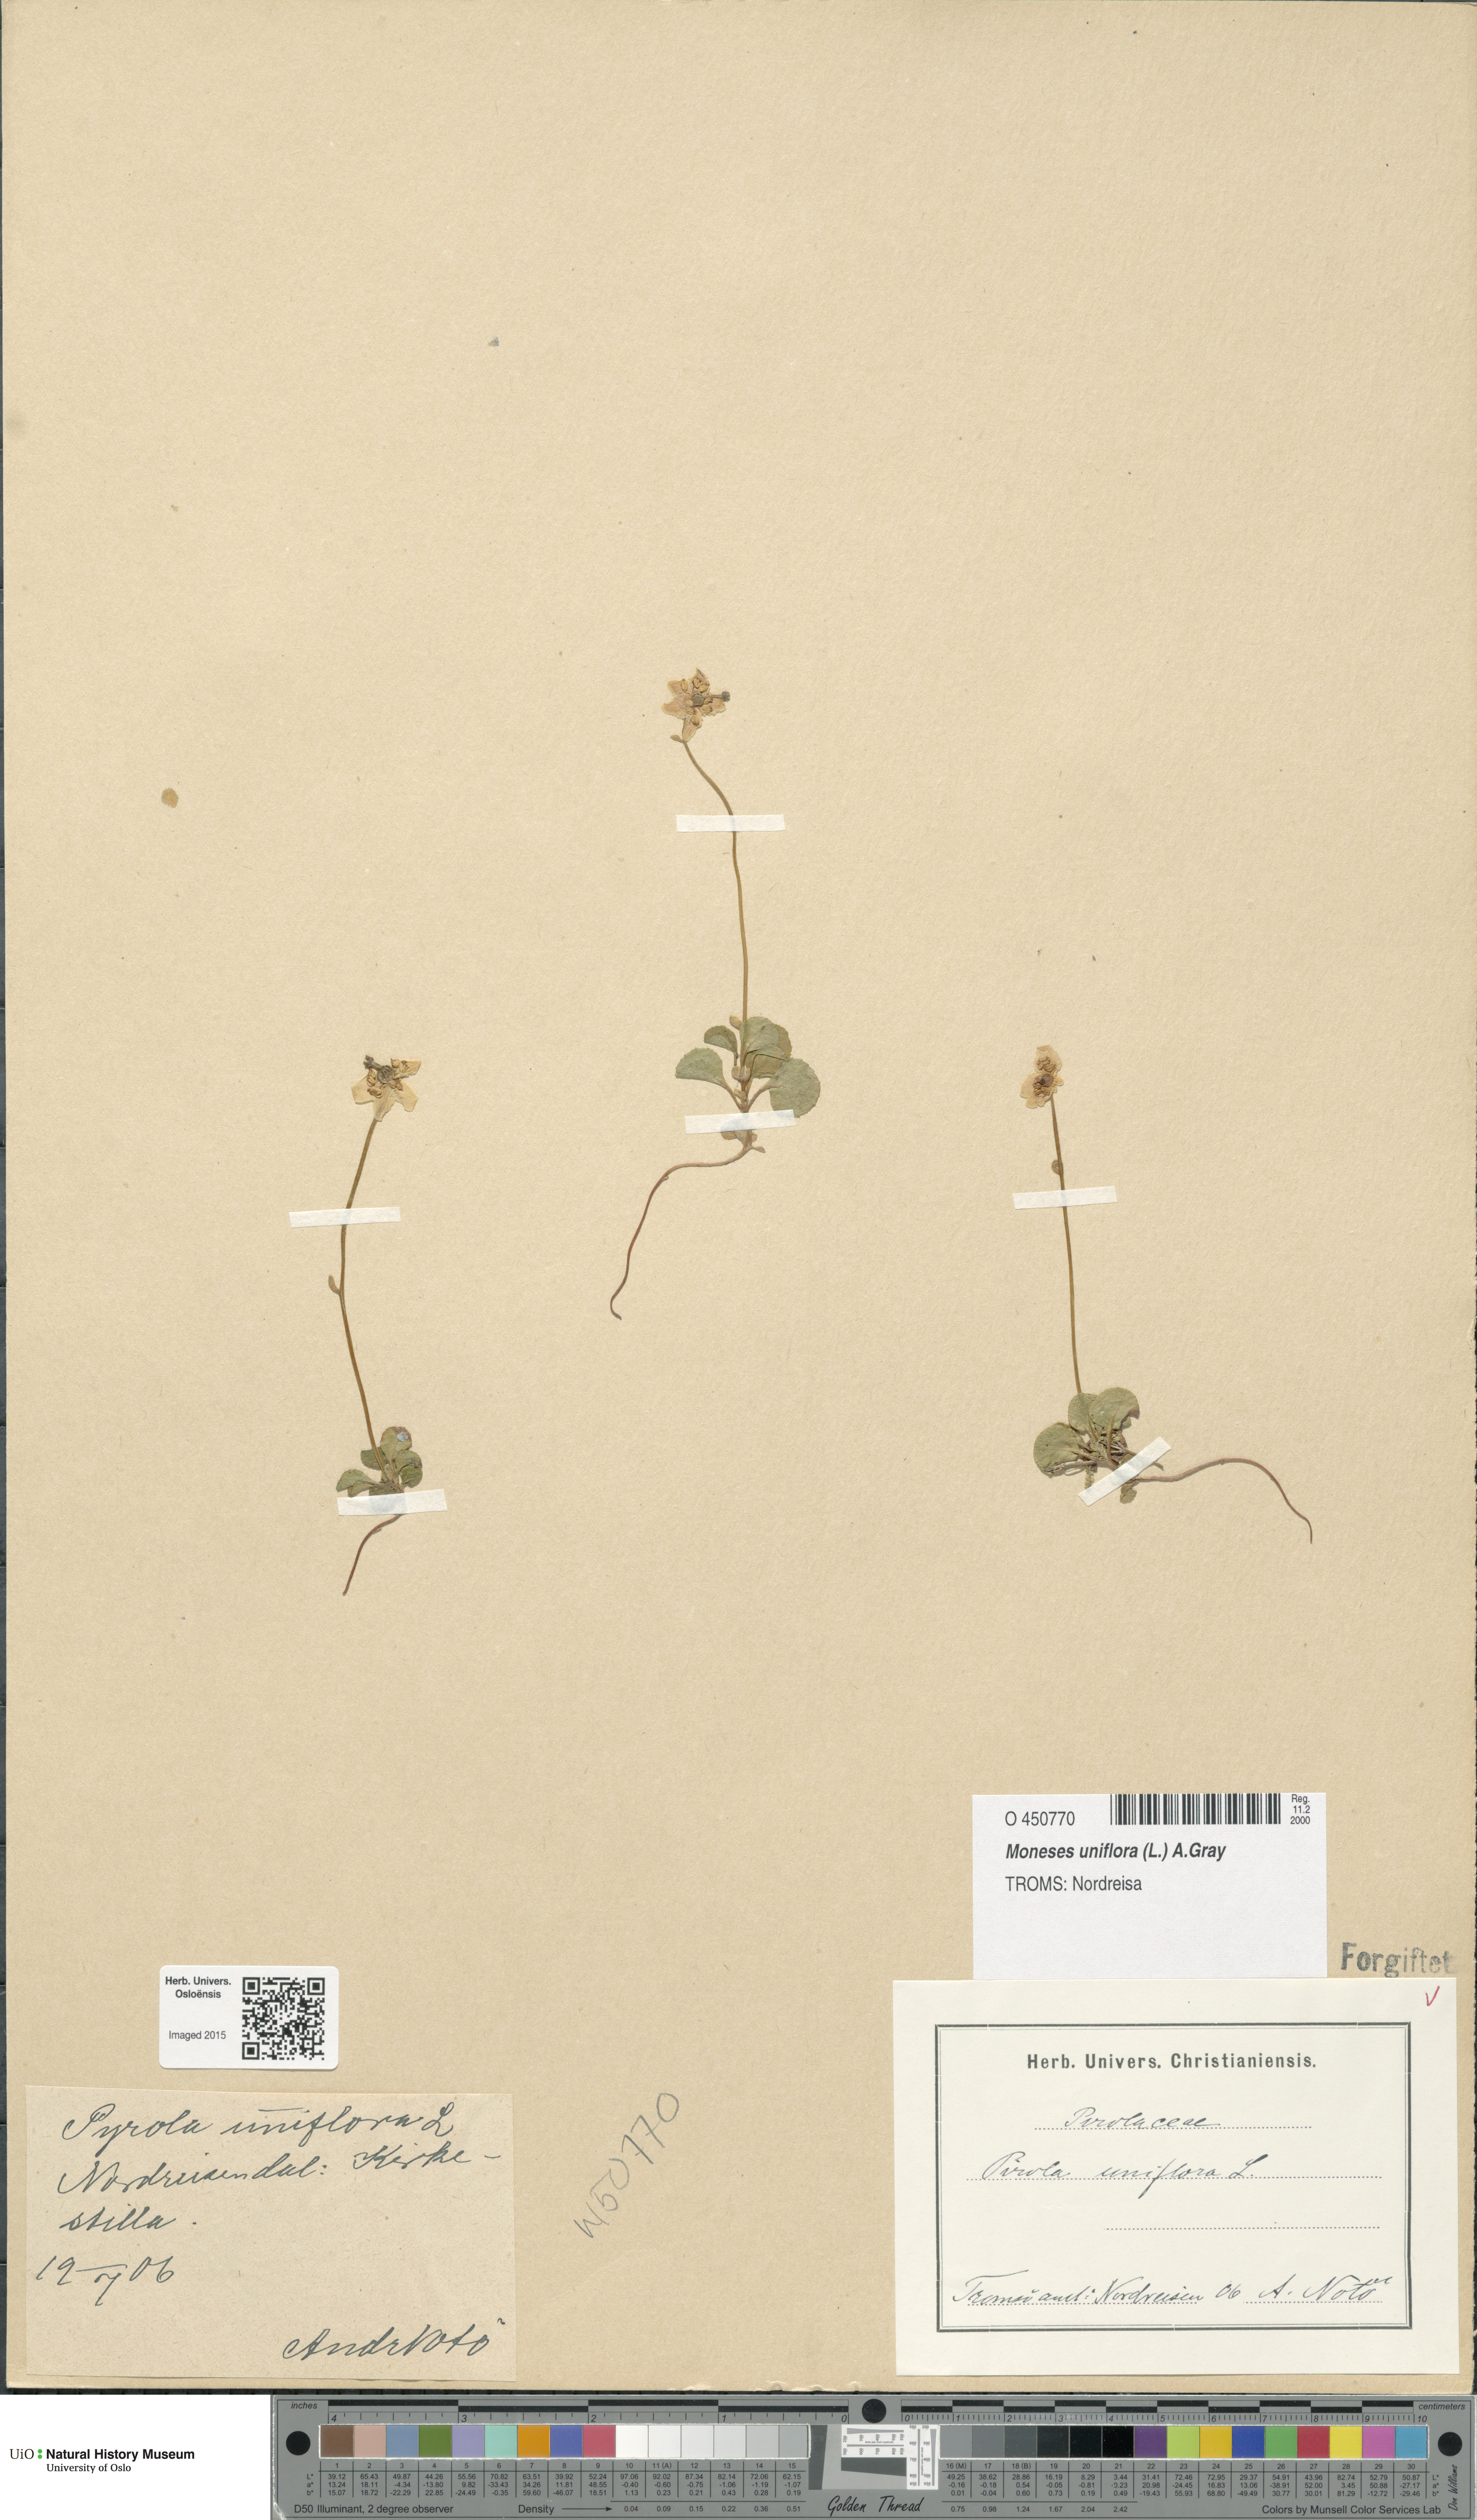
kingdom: Plantae
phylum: Tracheophyta
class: Magnoliopsida
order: Ericales
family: Ericaceae
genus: Moneses
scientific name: Moneses uniflora
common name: One-flowered wintergreen
